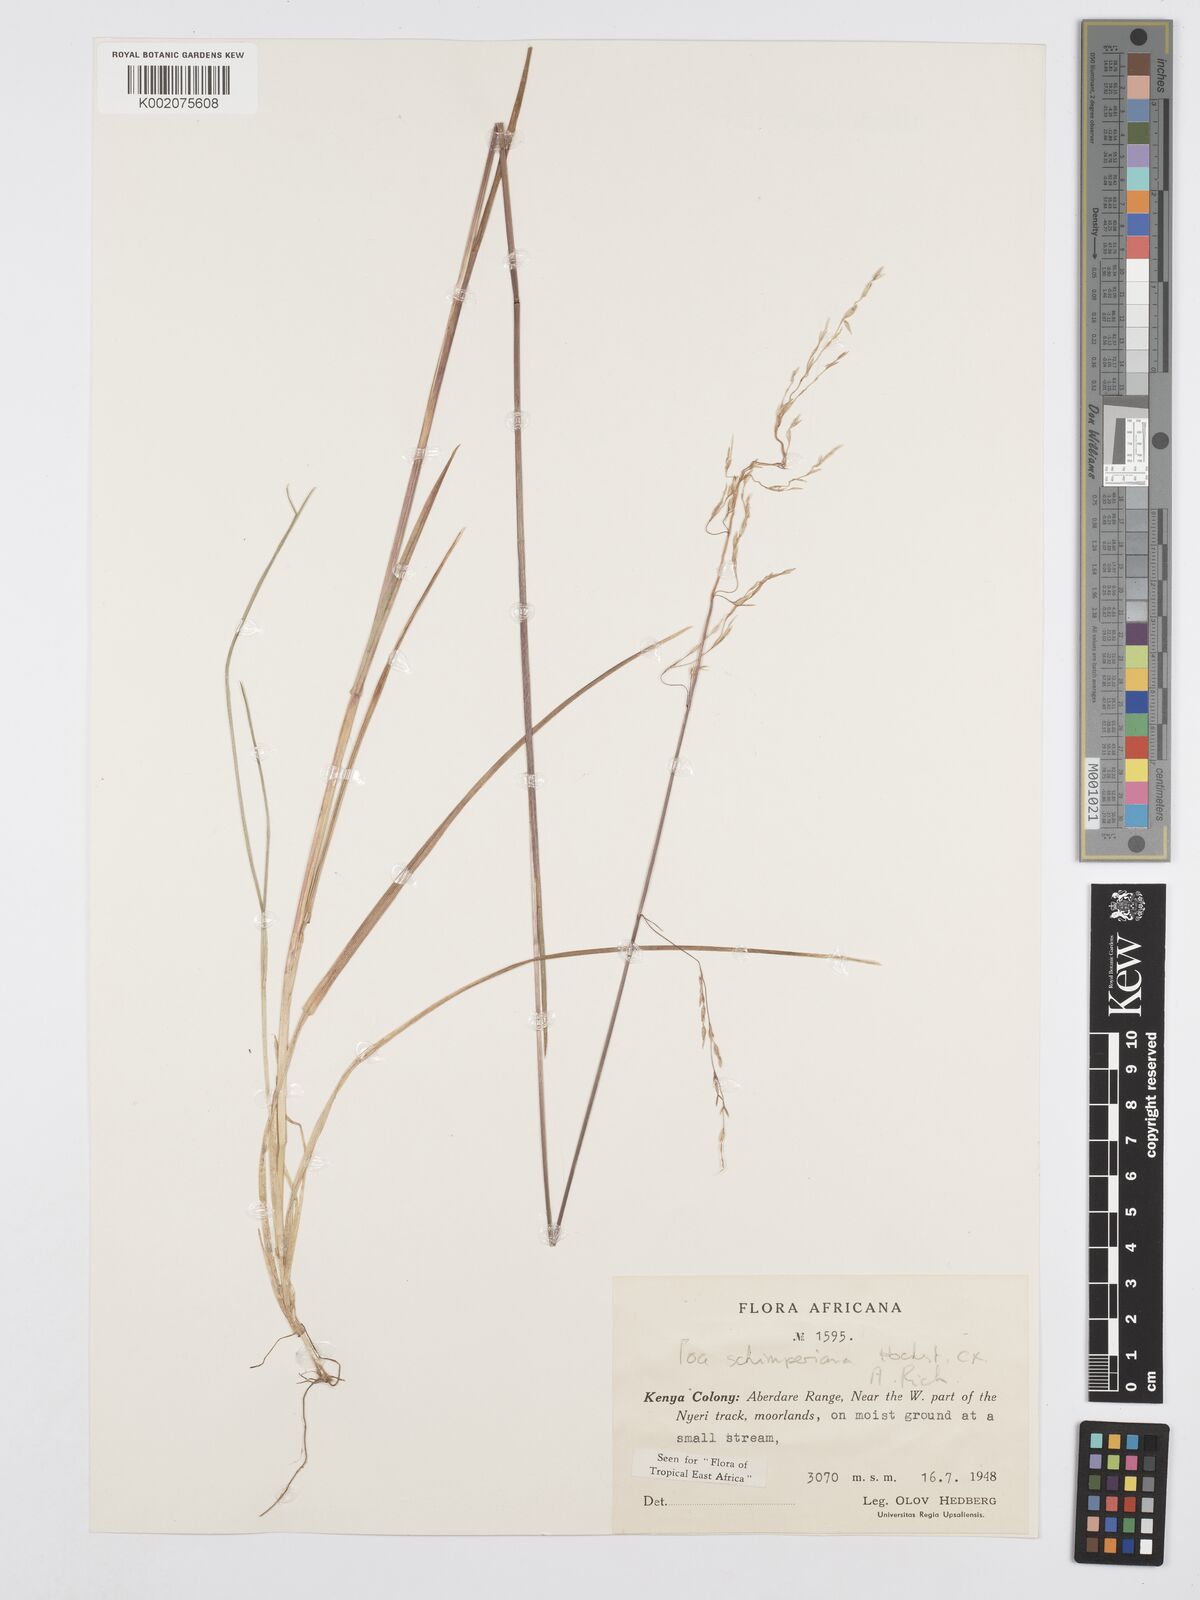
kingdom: Plantae
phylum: Tracheophyta
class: Liliopsida
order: Poales
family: Poaceae
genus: Poa
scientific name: Poa schimperiana
